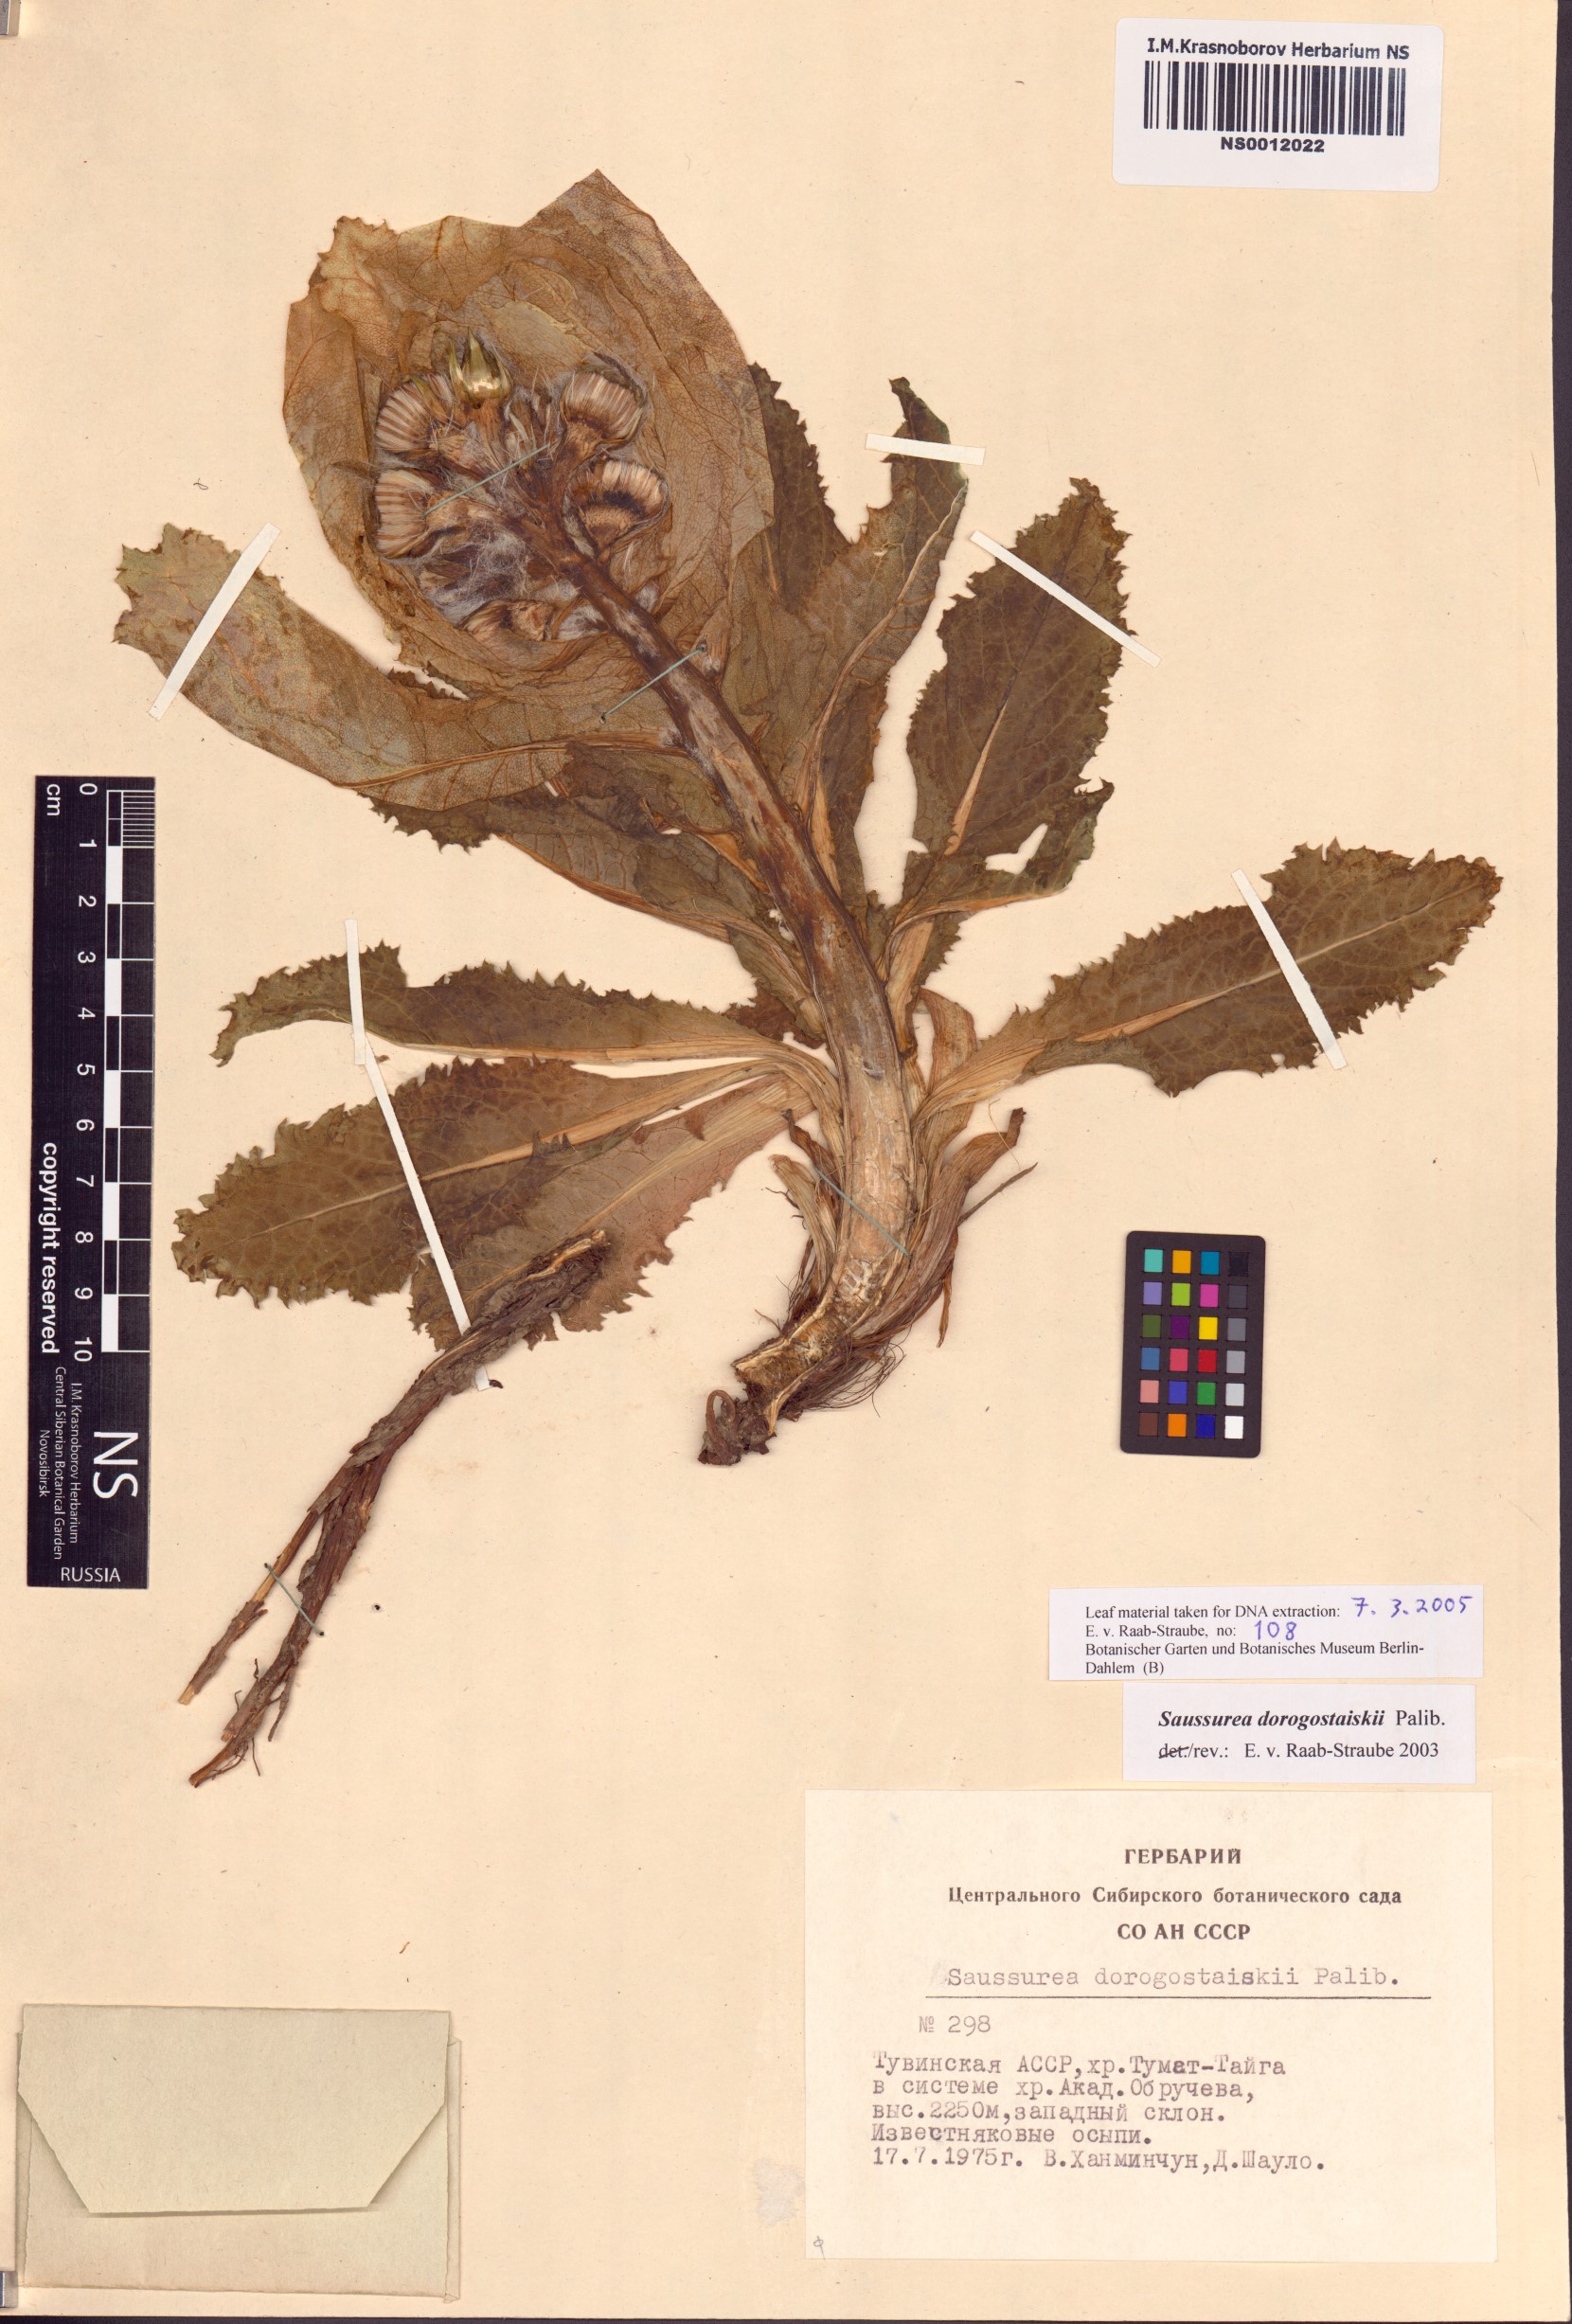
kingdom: Plantae
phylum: Tracheophyta
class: Magnoliopsida
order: Asterales
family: Asteraceae
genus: Saussurea
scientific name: Saussurea involucrata
